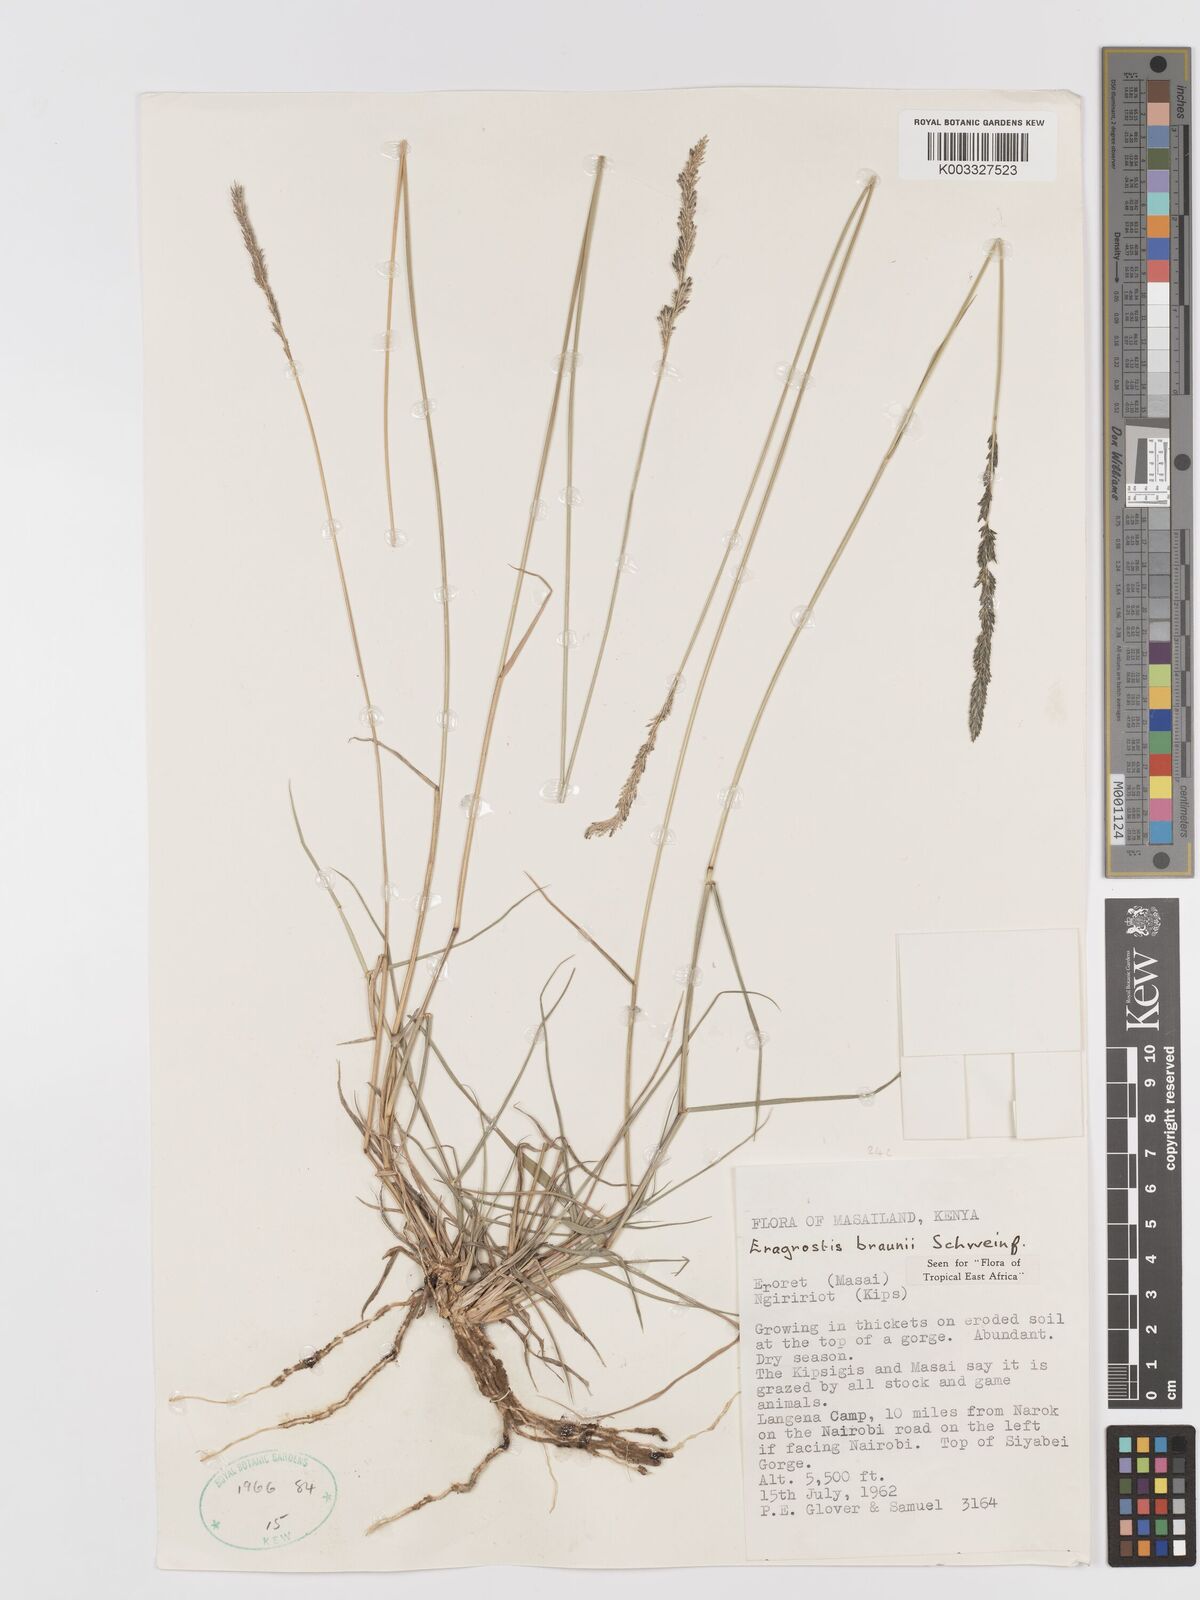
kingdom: Plantae
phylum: Tracheophyta
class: Liliopsida
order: Poales
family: Poaceae
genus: Eragrostis
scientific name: Eragrostis braunii
